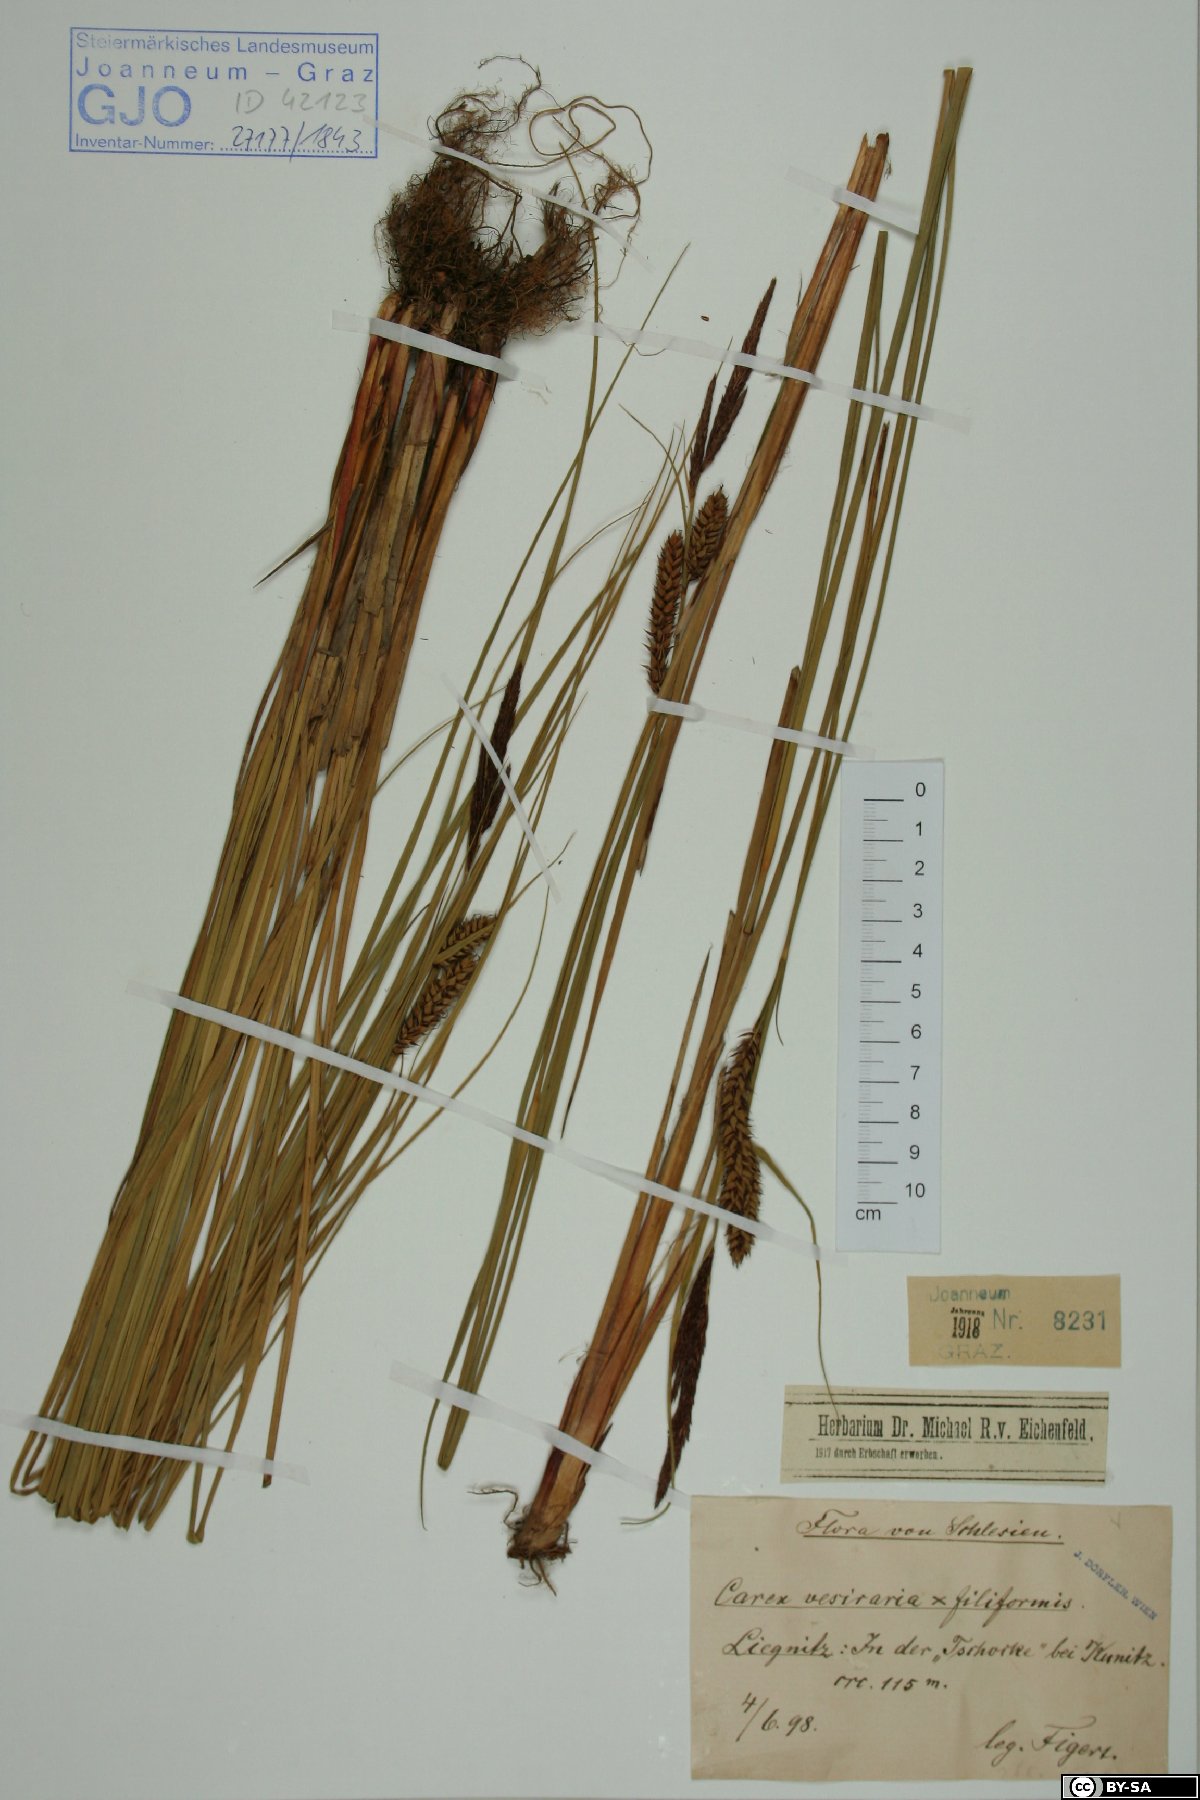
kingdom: Plantae
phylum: Tracheophyta
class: Liliopsida
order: Poales
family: Cyperaceae
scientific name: Cyperaceae
